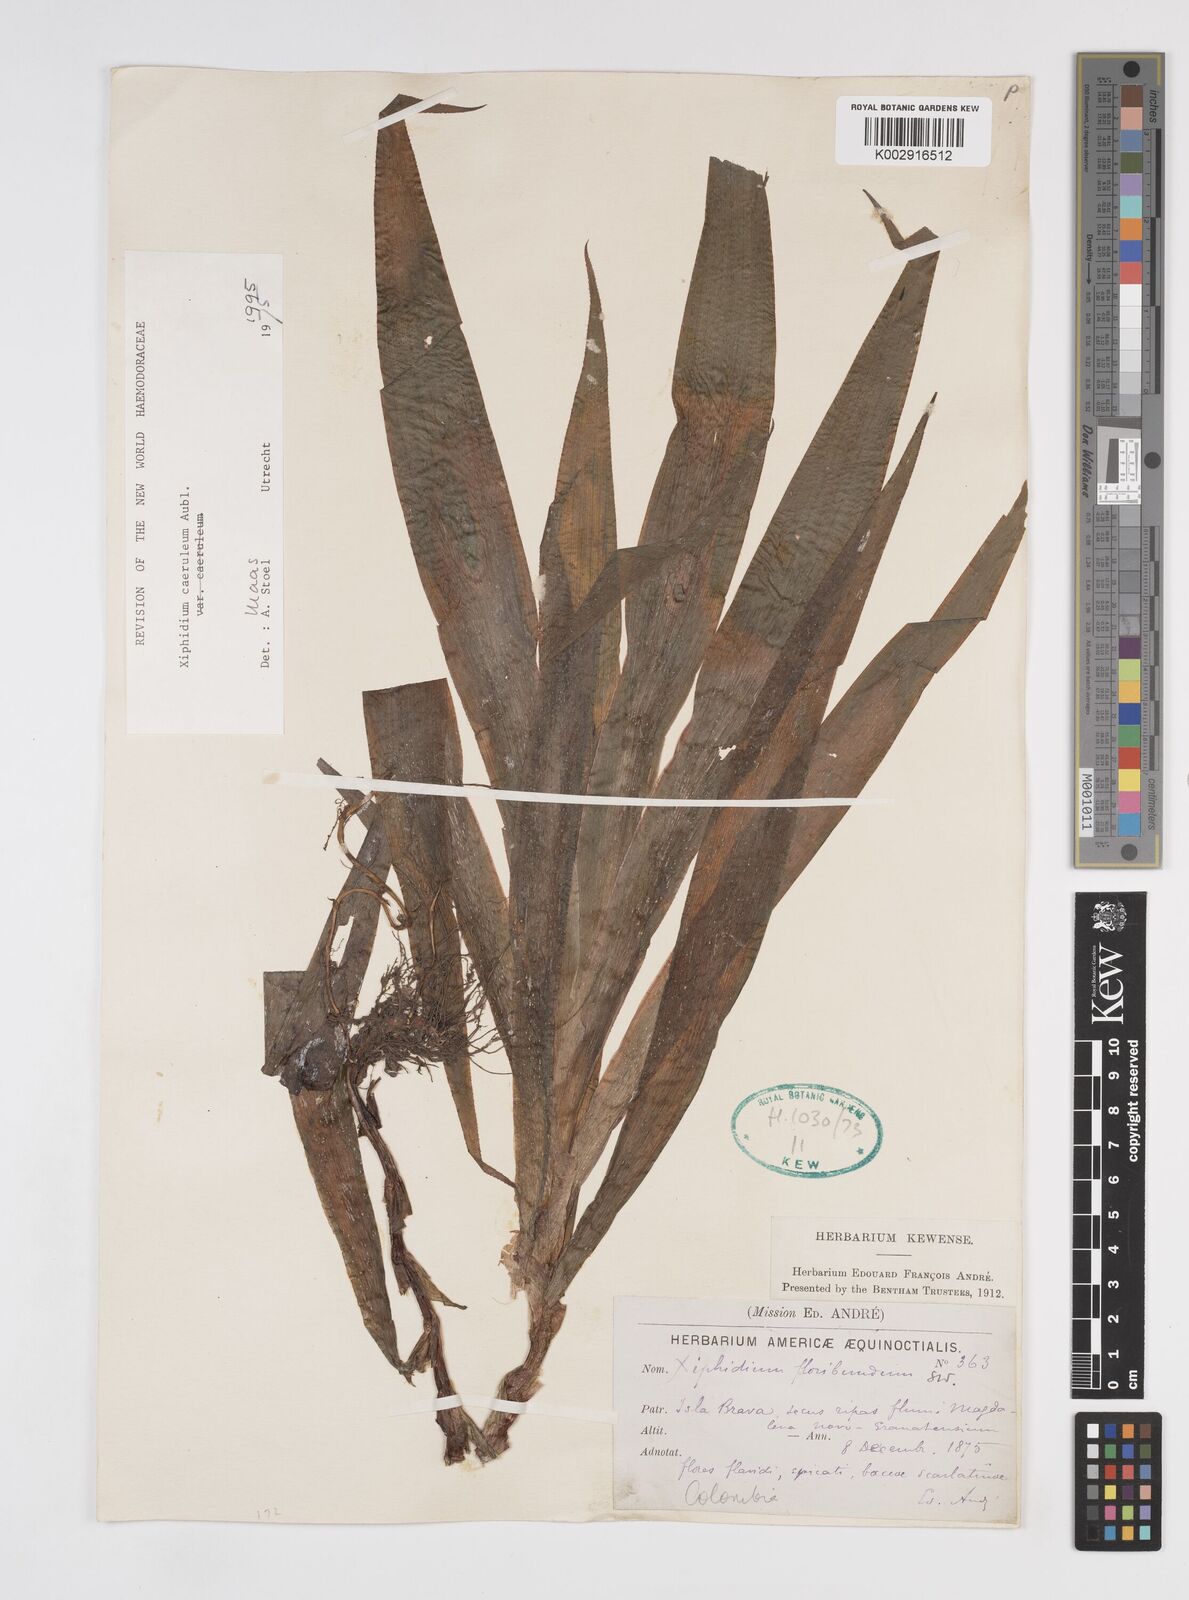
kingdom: Plantae
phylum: Tracheophyta
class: Liliopsida
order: Commelinales
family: Haemodoraceae
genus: Xiphidium
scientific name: Xiphidium caeruleum
